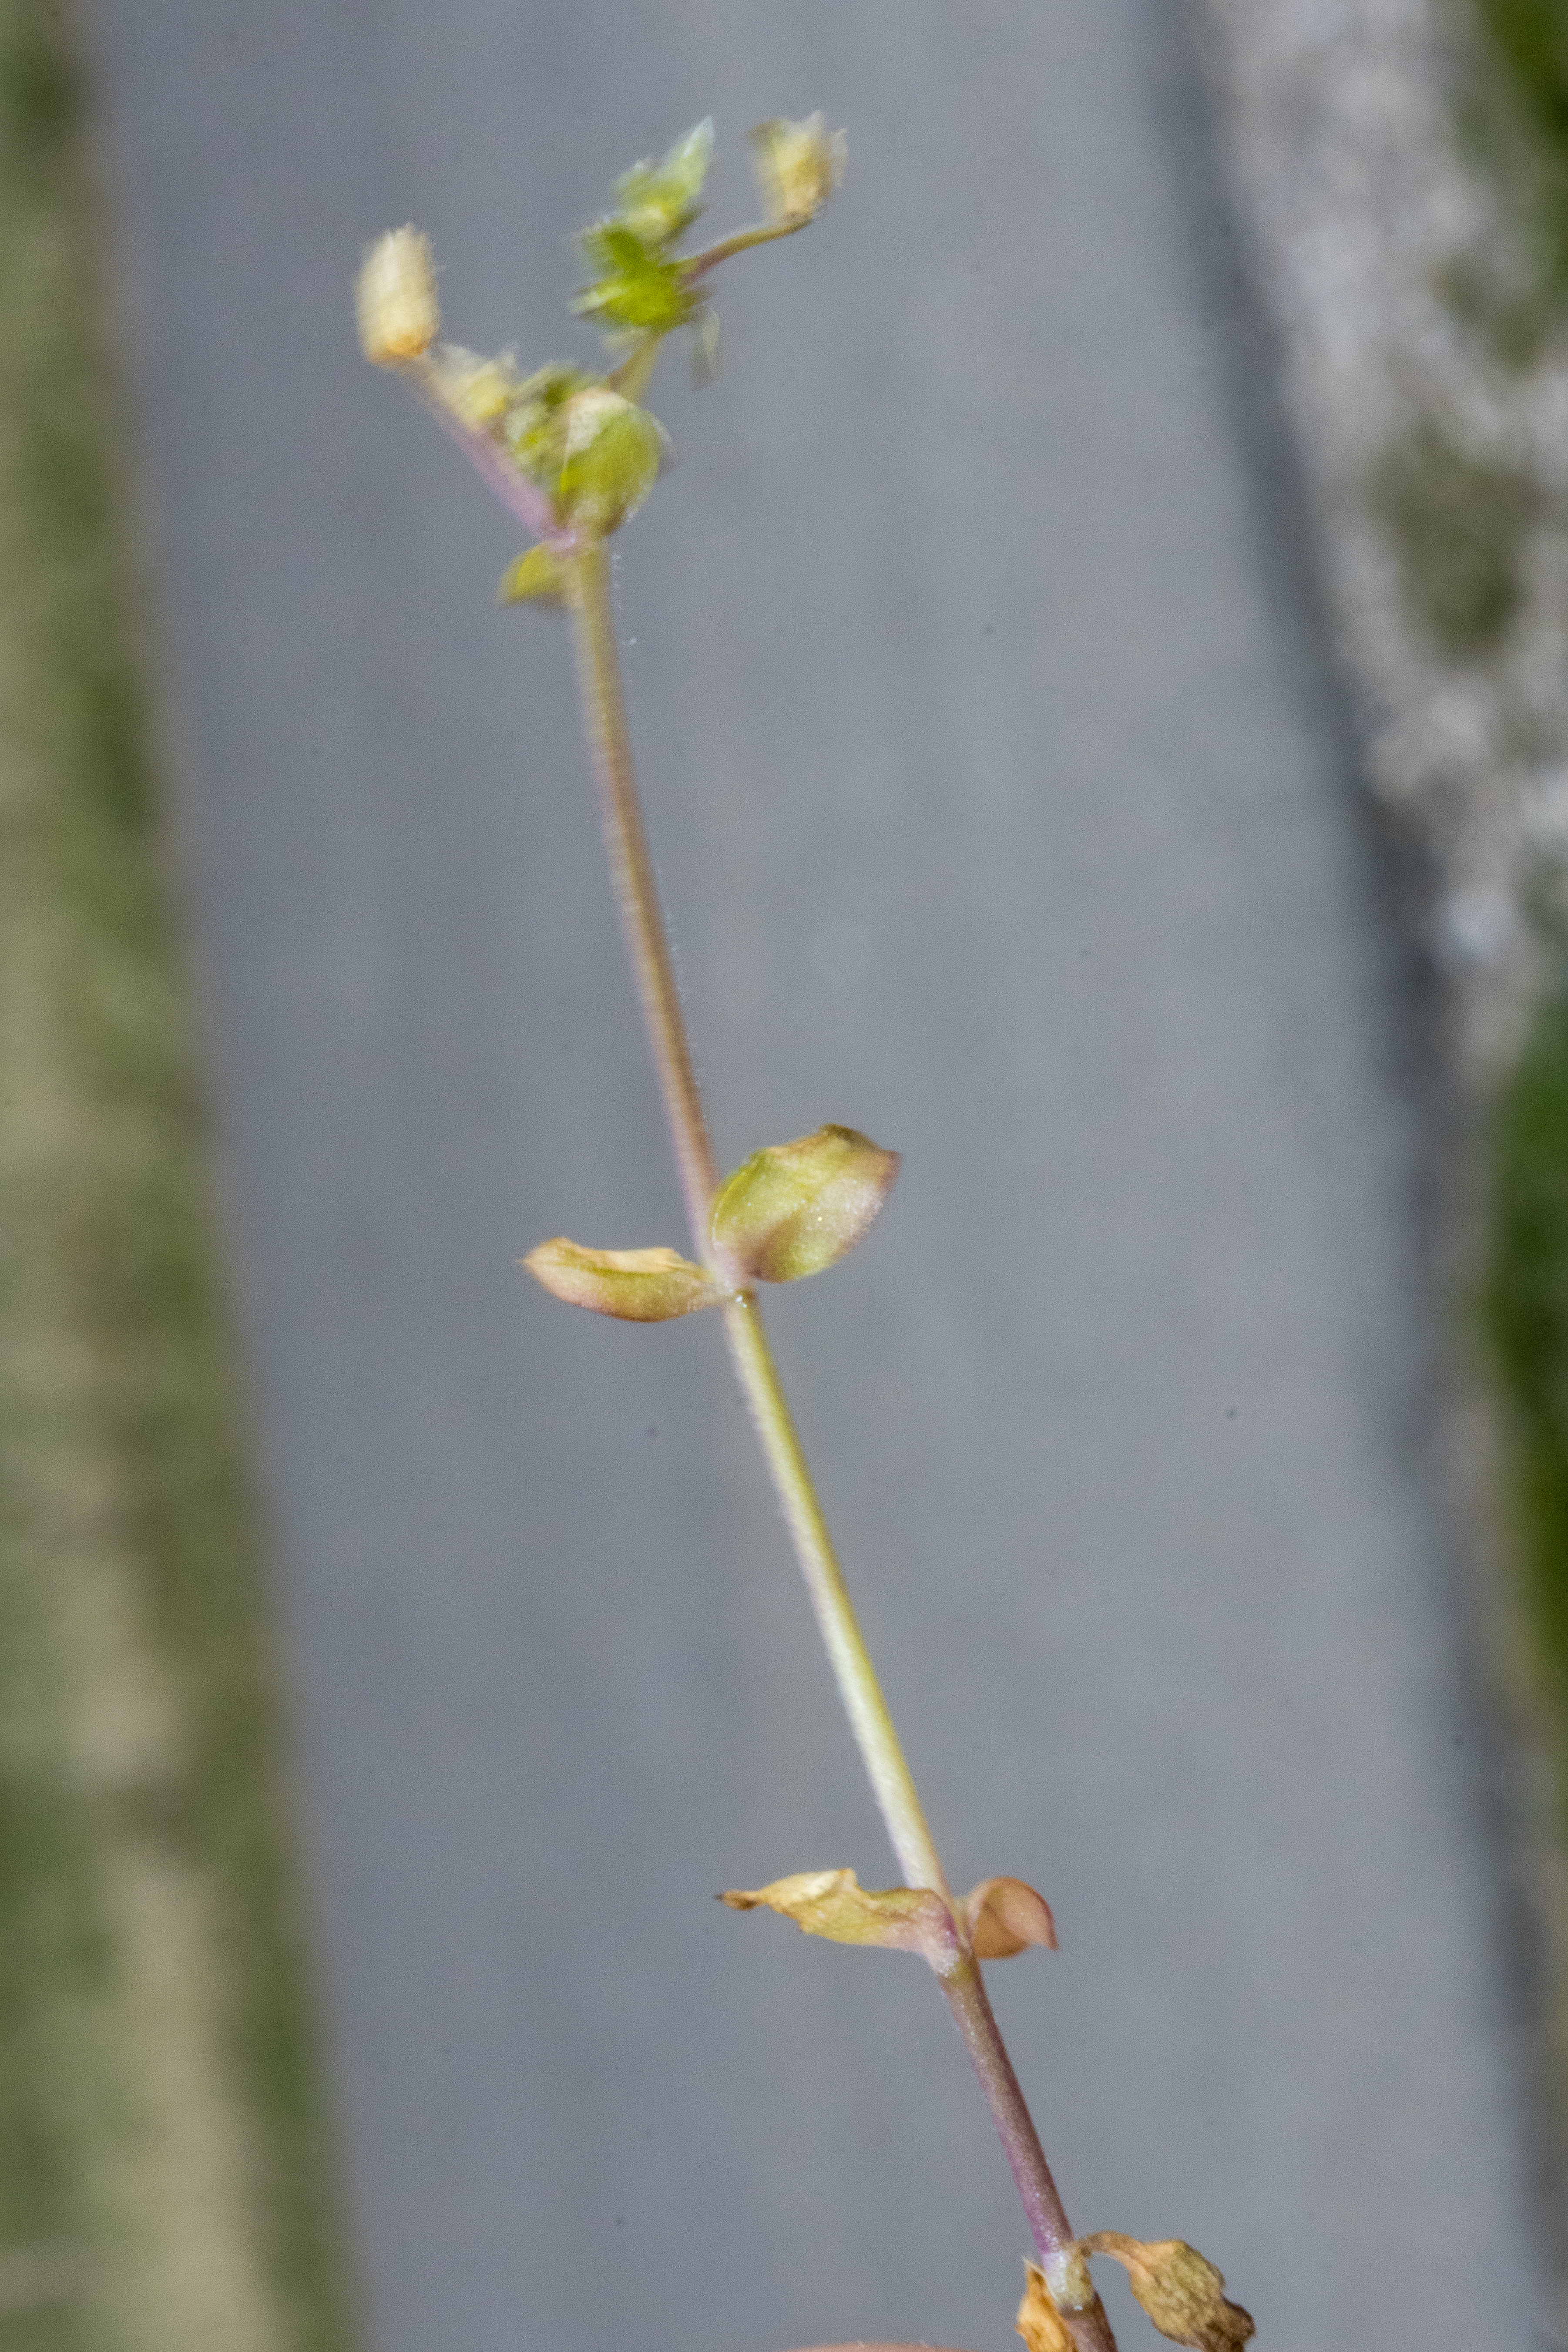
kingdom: Plantae
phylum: Tracheophyta
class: Magnoliopsida
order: Caryophyllales
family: Caryophyllaceae
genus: Stellaria
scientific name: Stellaria apetala
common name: Bleg fuglegræs
